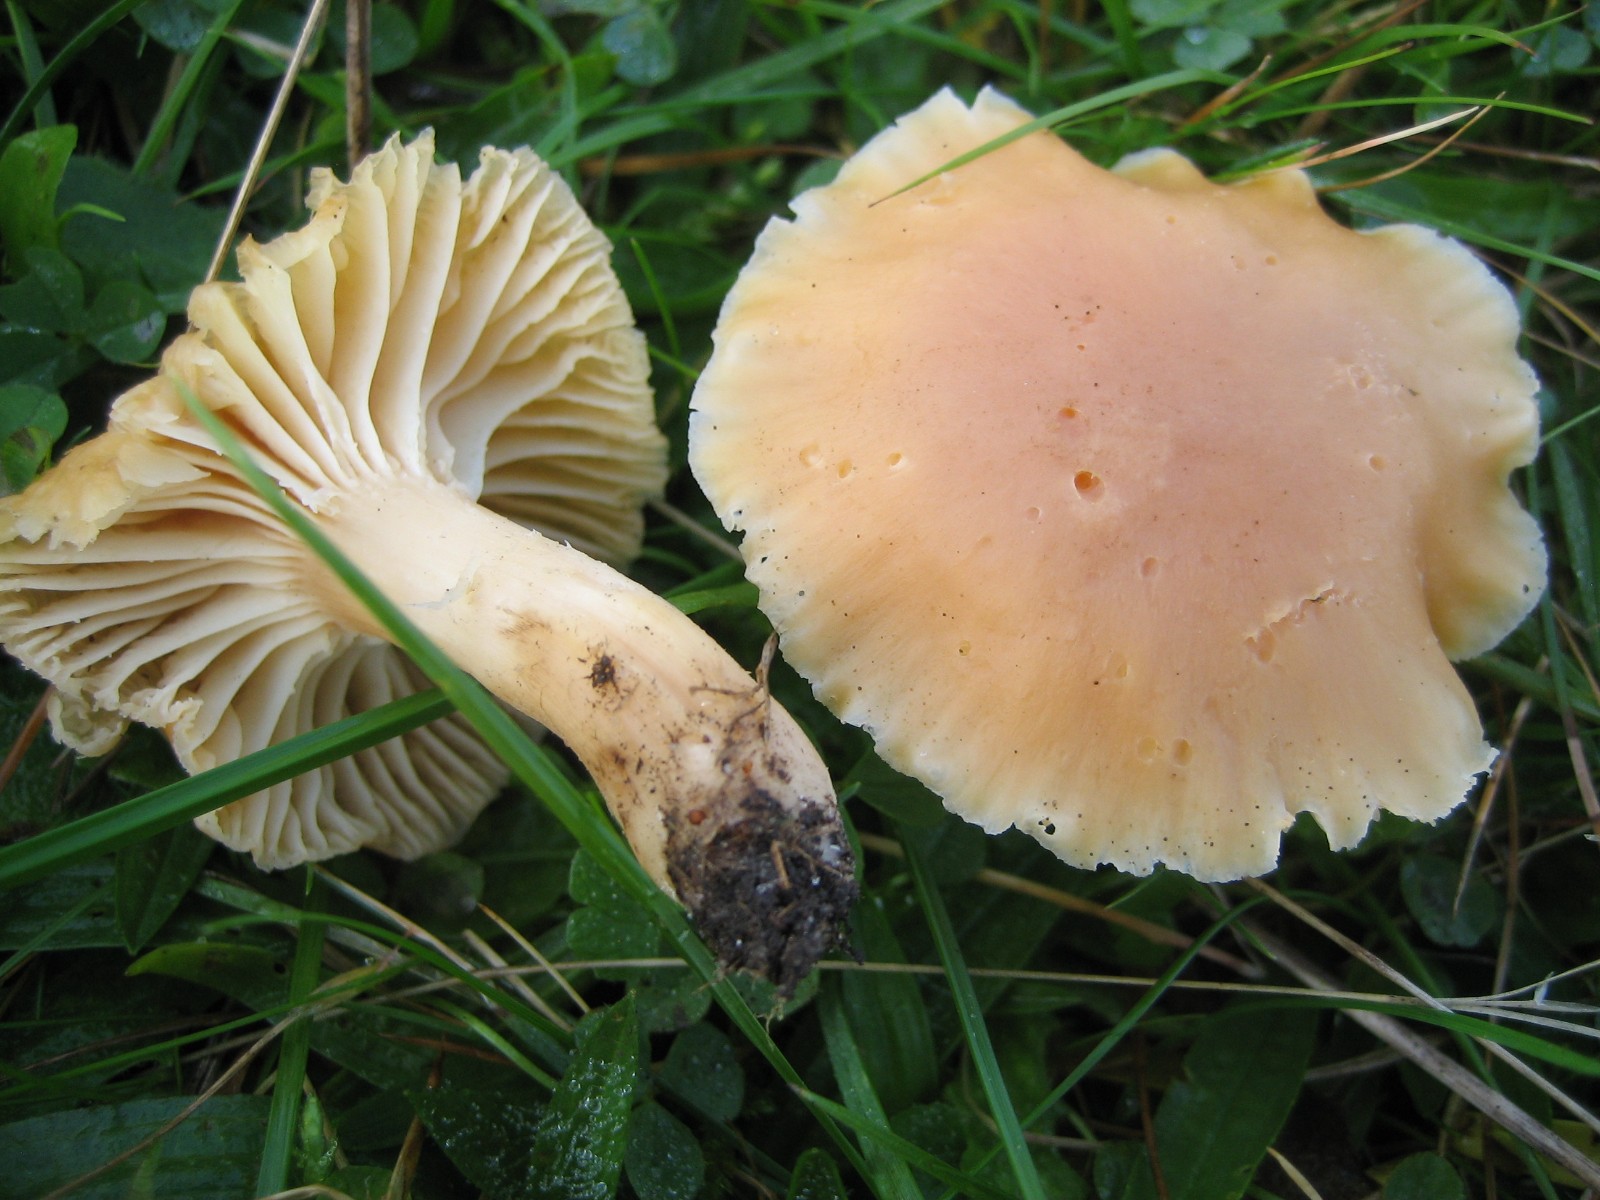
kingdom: Fungi
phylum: Basidiomycota
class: Agaricomycetes
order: Agaricales
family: Hygrophoraceae
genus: Cuphophyllus
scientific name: Cuphophyllus pratensis
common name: eng-vokshat
